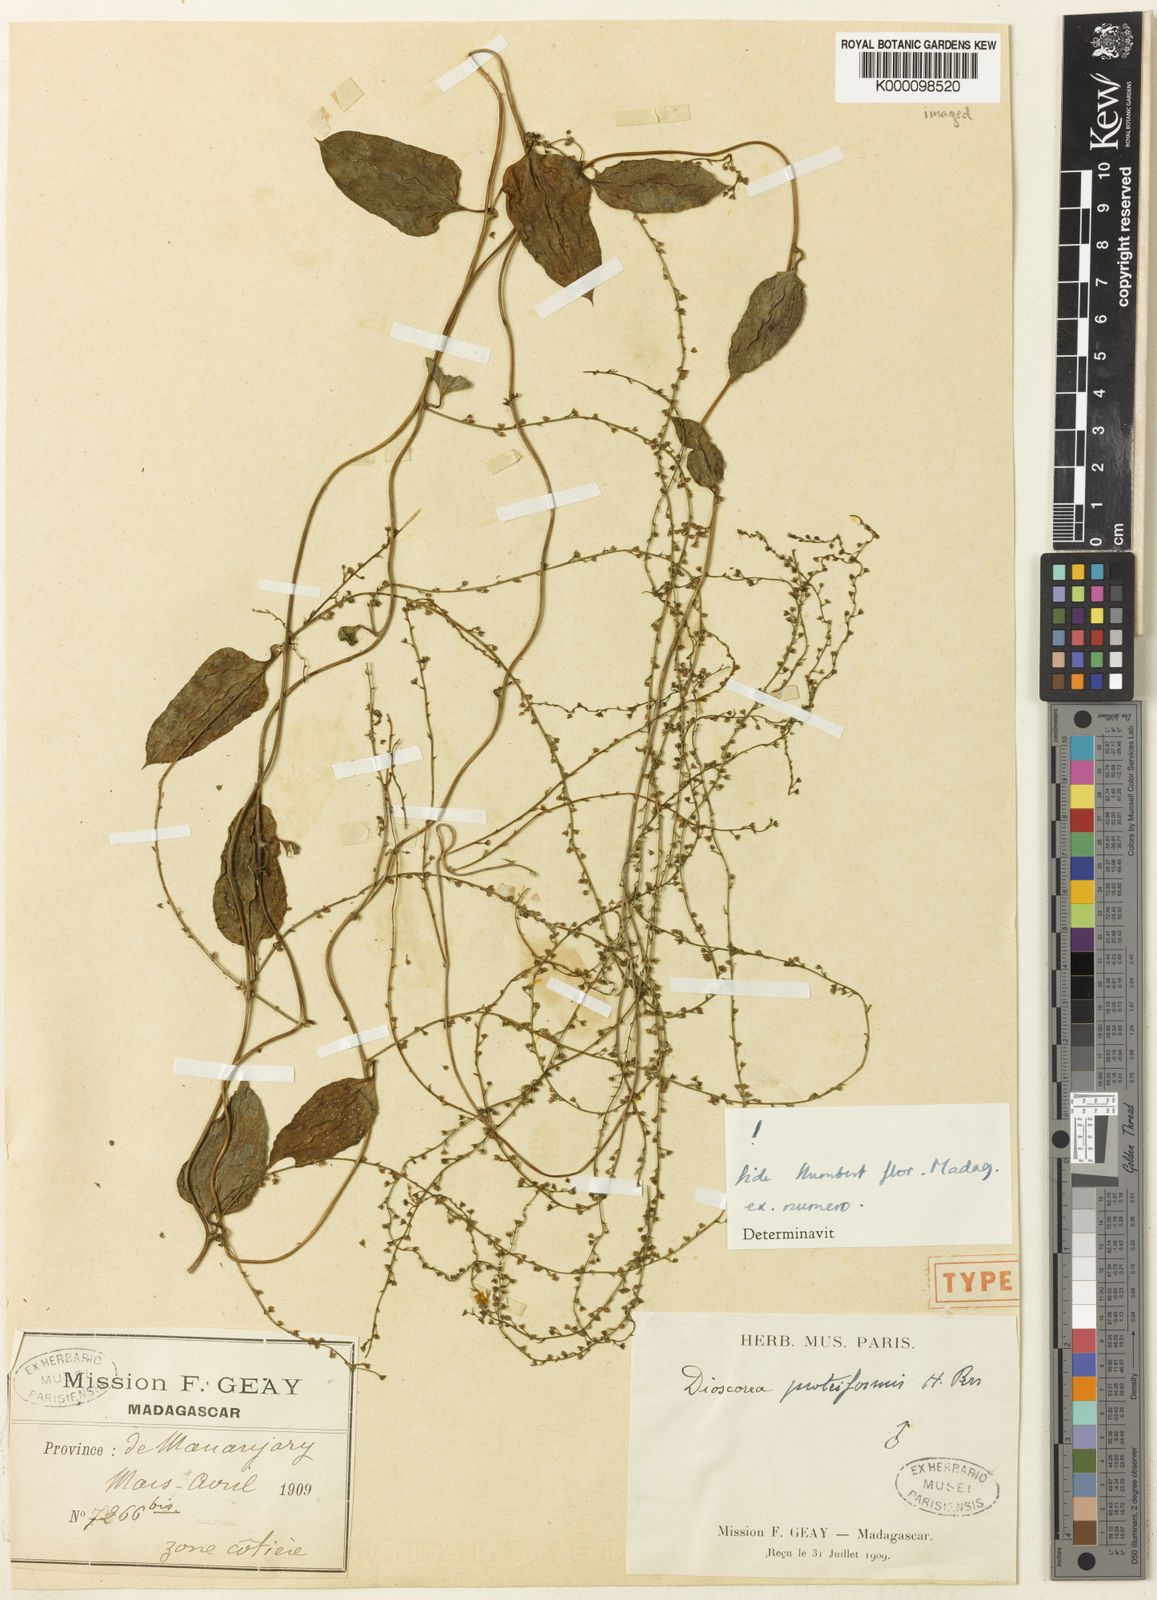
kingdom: Plantae
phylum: Tracheophyta
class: Liliopsida
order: Dioscoreales
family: Dioscoreaceae
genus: Dioscorea
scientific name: Dioscorea proteiformis
